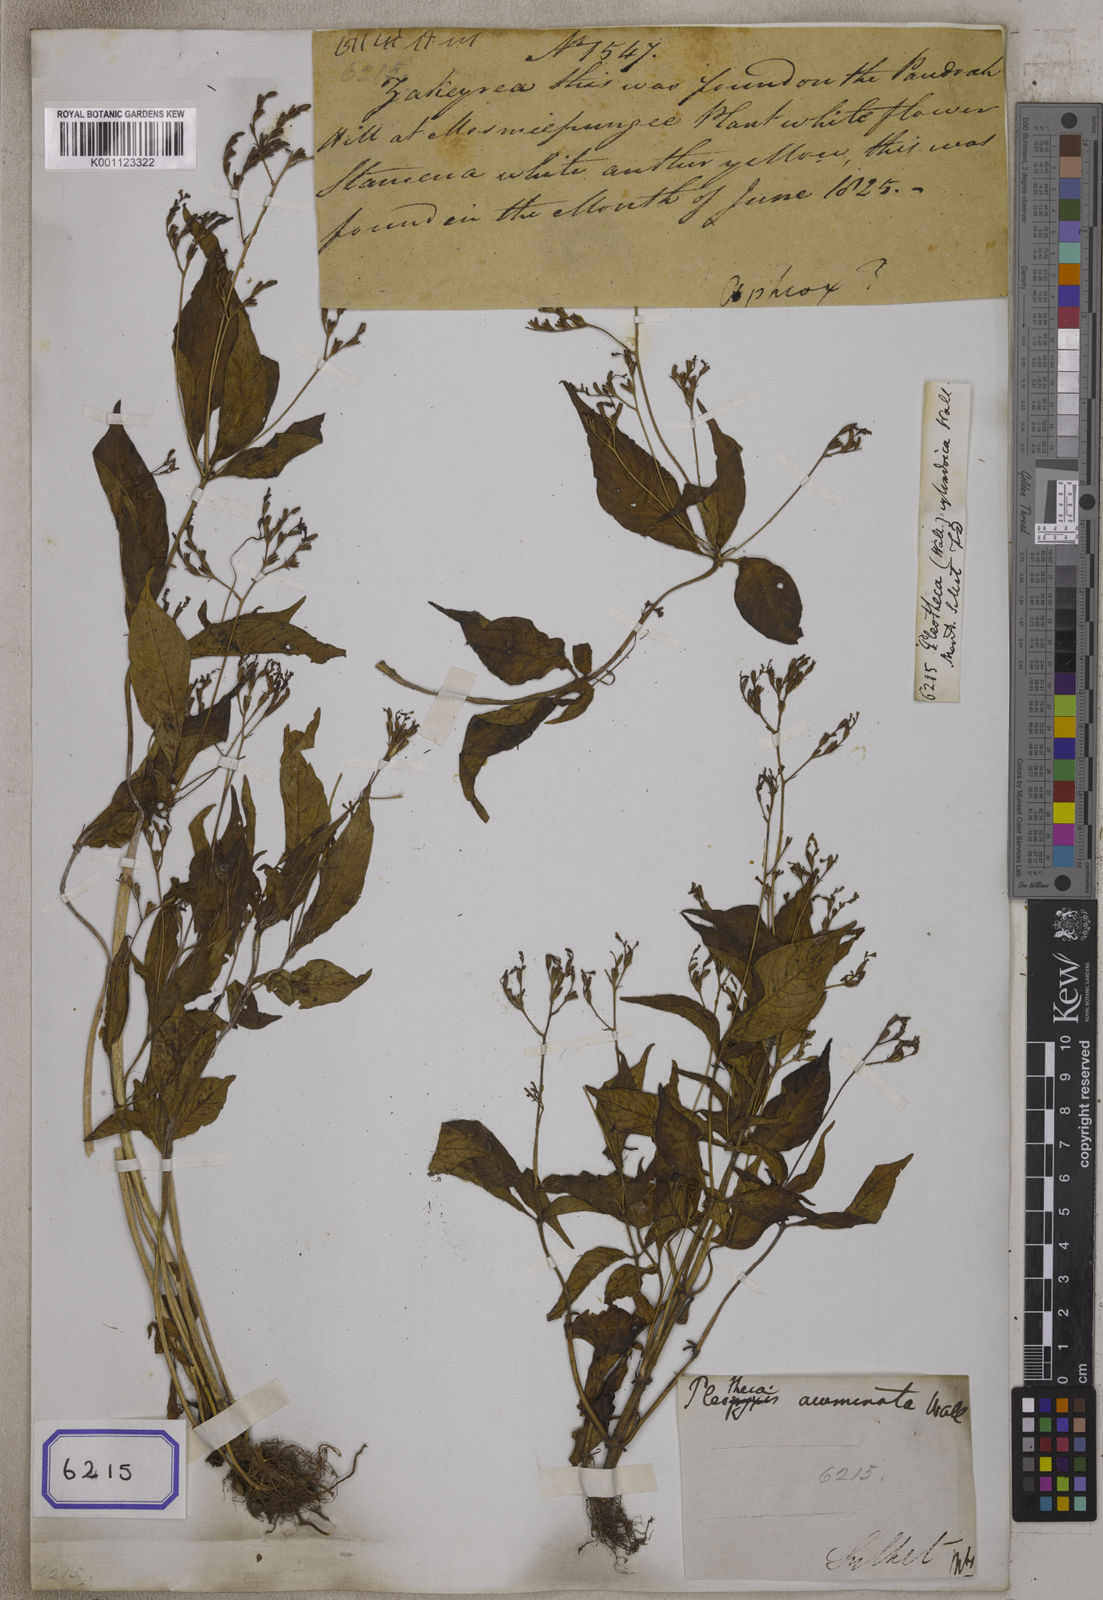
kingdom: Plantae
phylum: Tracheophyta
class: Magnoliopsida
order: Gentianales
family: Rubiaceae
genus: Ophiorrhiza
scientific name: Ophiorrhiza
